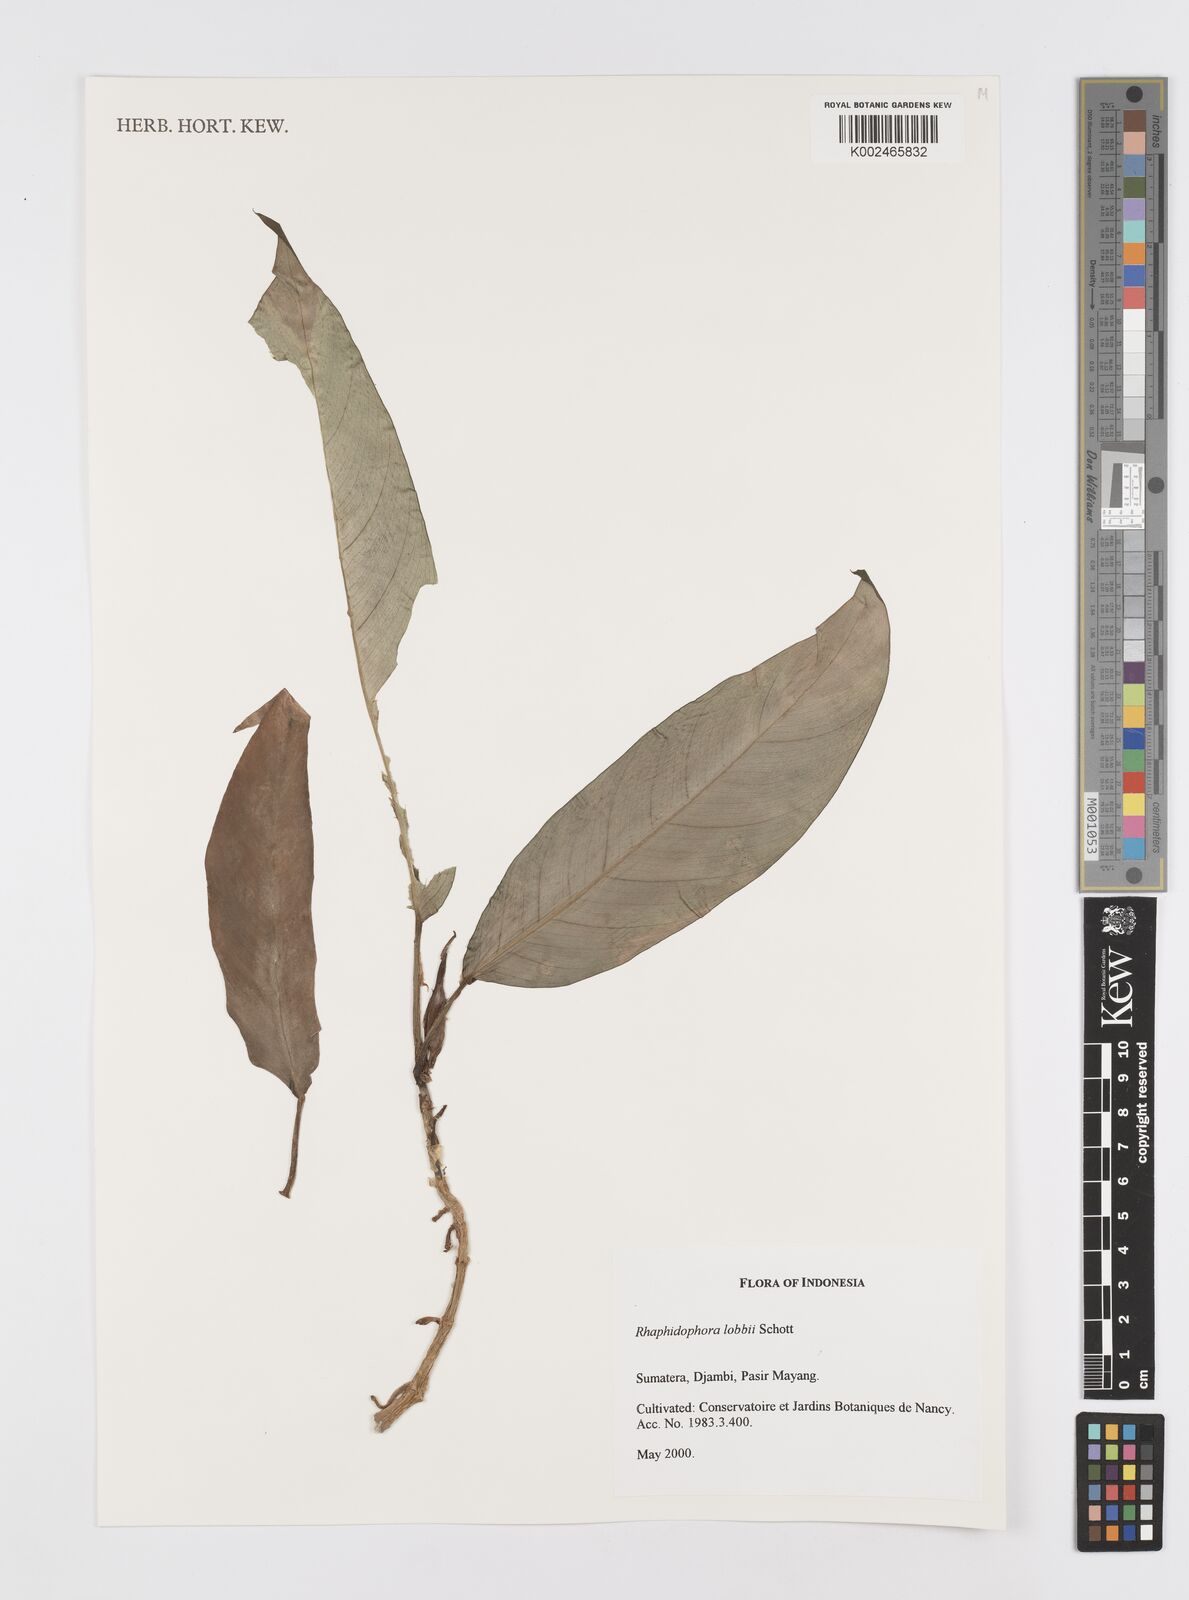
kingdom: Plantae
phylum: Tracheophyta
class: Liliopsida
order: Alismatales
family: Araceae
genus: Rhaphidophora
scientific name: Rhaphidophora lobbii
